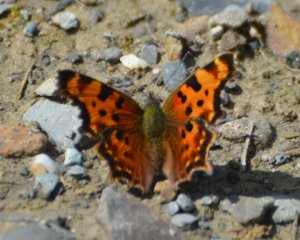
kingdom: Animalia
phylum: Arthropoda
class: Insecta
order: Lepidoptera
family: Nymphalidae
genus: Polygonia
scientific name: Polygonia faunus
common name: Green Comma
